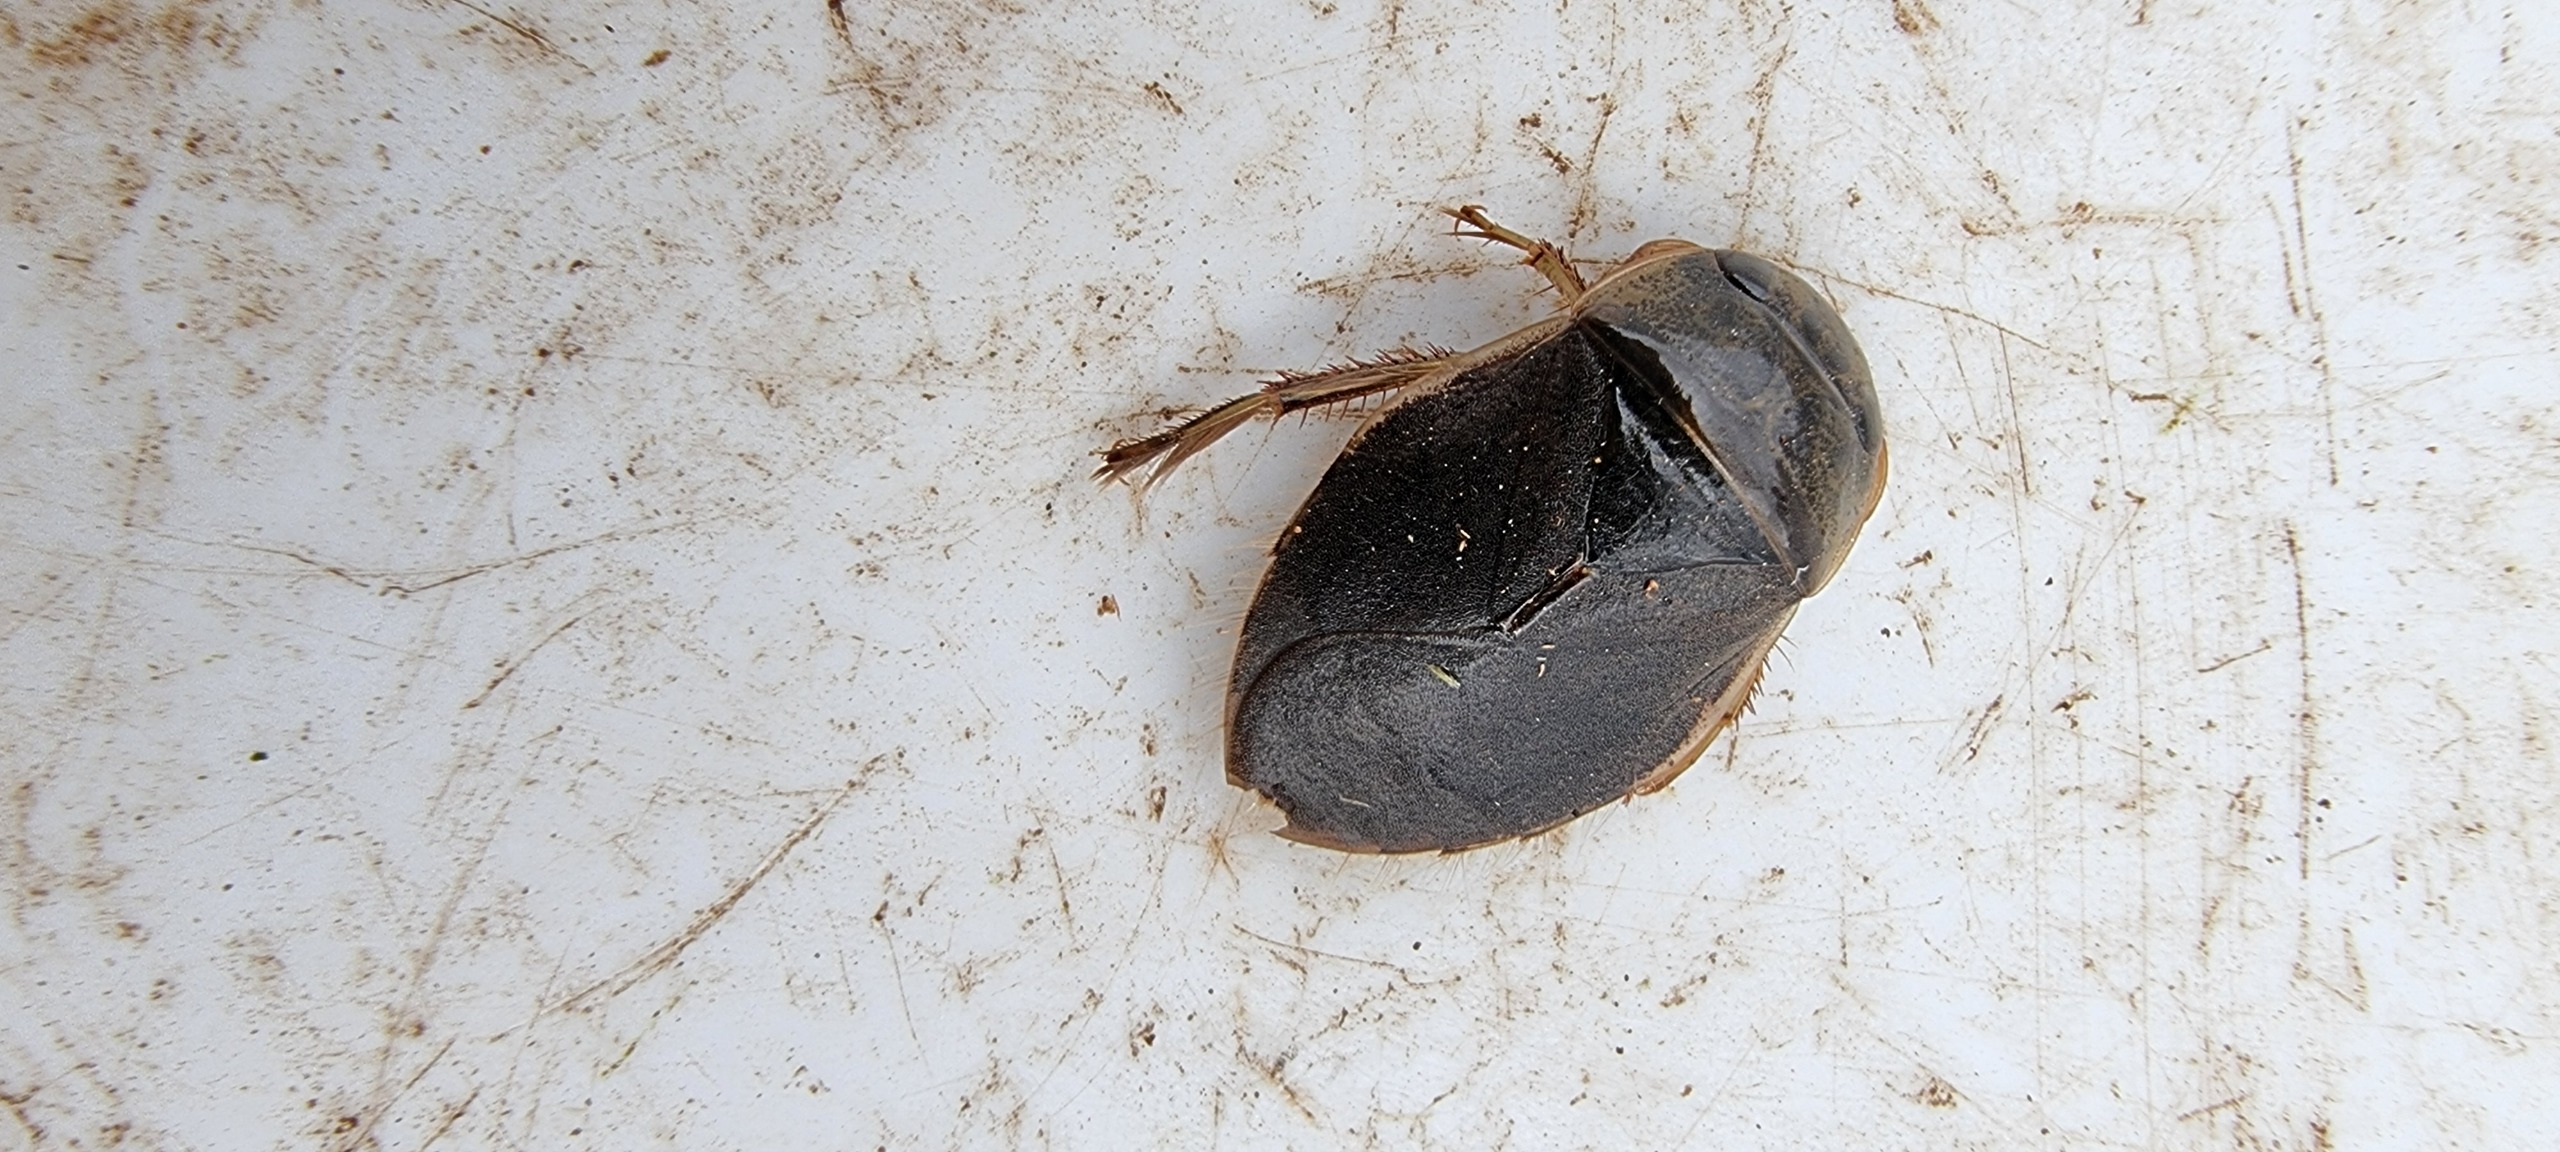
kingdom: Animalia
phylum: Arthropoda
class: Insecta
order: Hemiptera
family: Naucoridae
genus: Ilyocoris
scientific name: Ilyocoris cimicoides
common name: Vandrøver
